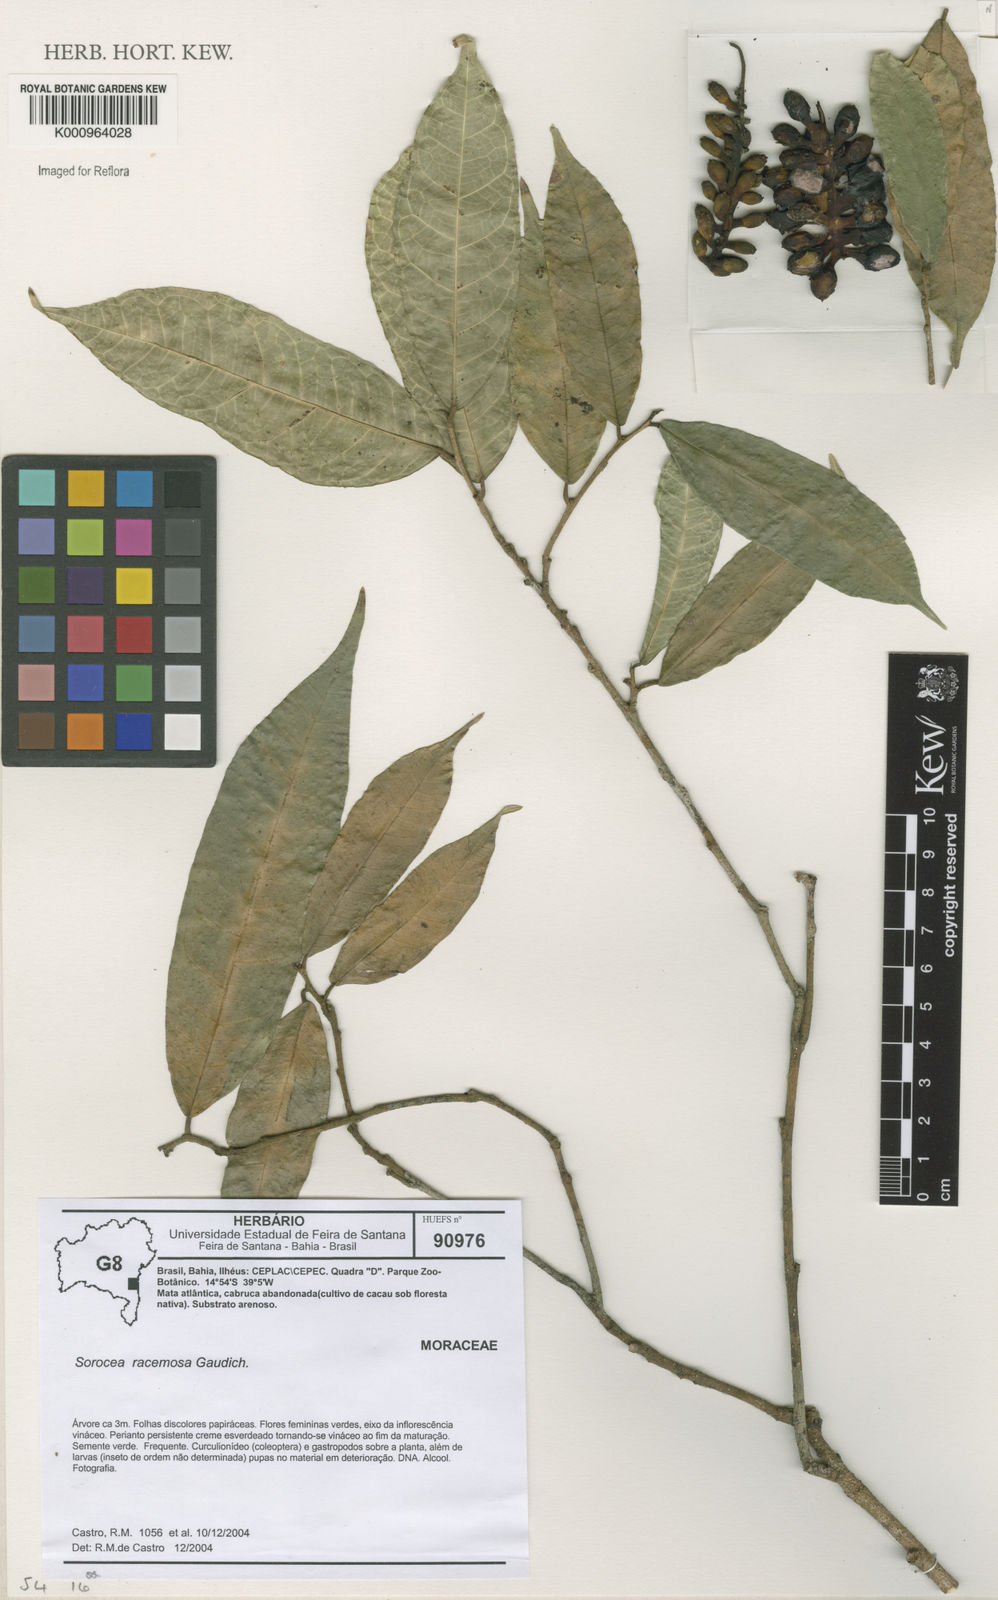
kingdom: Plantae
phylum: Tracheophyta
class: Magnoliopsida
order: Rosales
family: Moraceae
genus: Sorocea
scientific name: Sorocea hilarii
